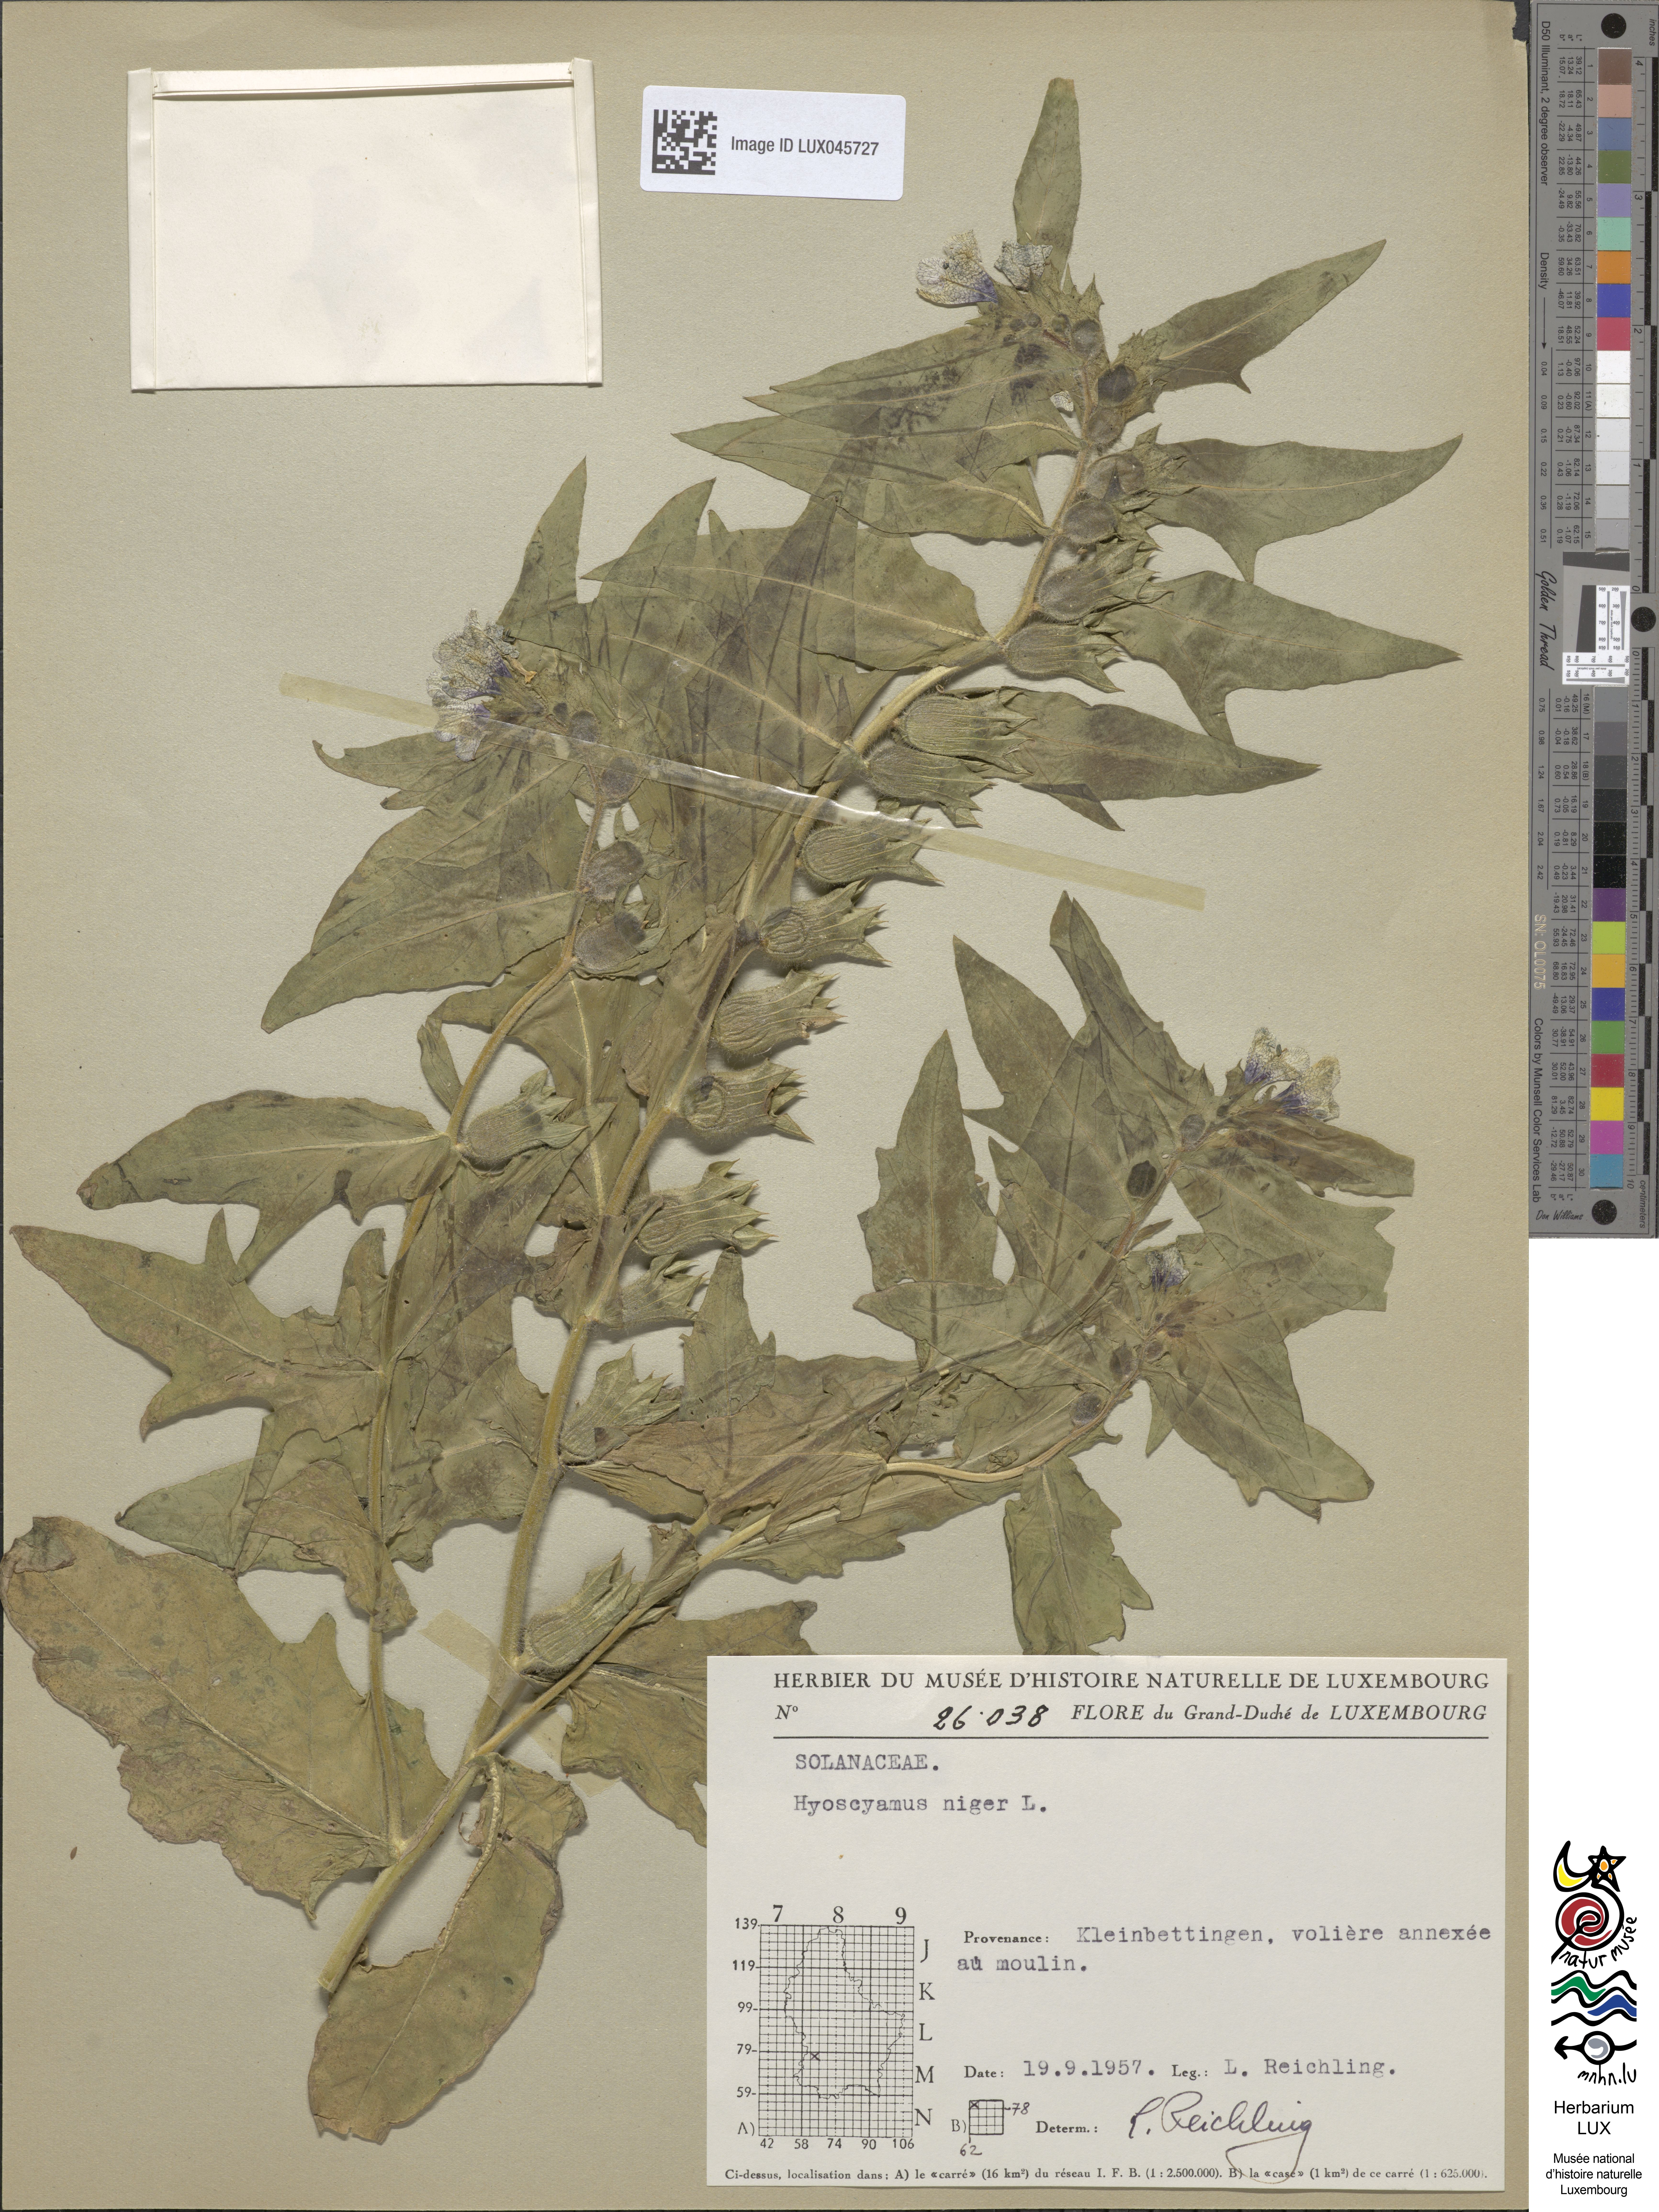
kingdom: Plantae
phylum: Tracheophyta
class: Magnoliopsida
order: Solanales
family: Solanaceae
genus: Hyoscyamus
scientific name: Hyoscyamus niger
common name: Henbane
